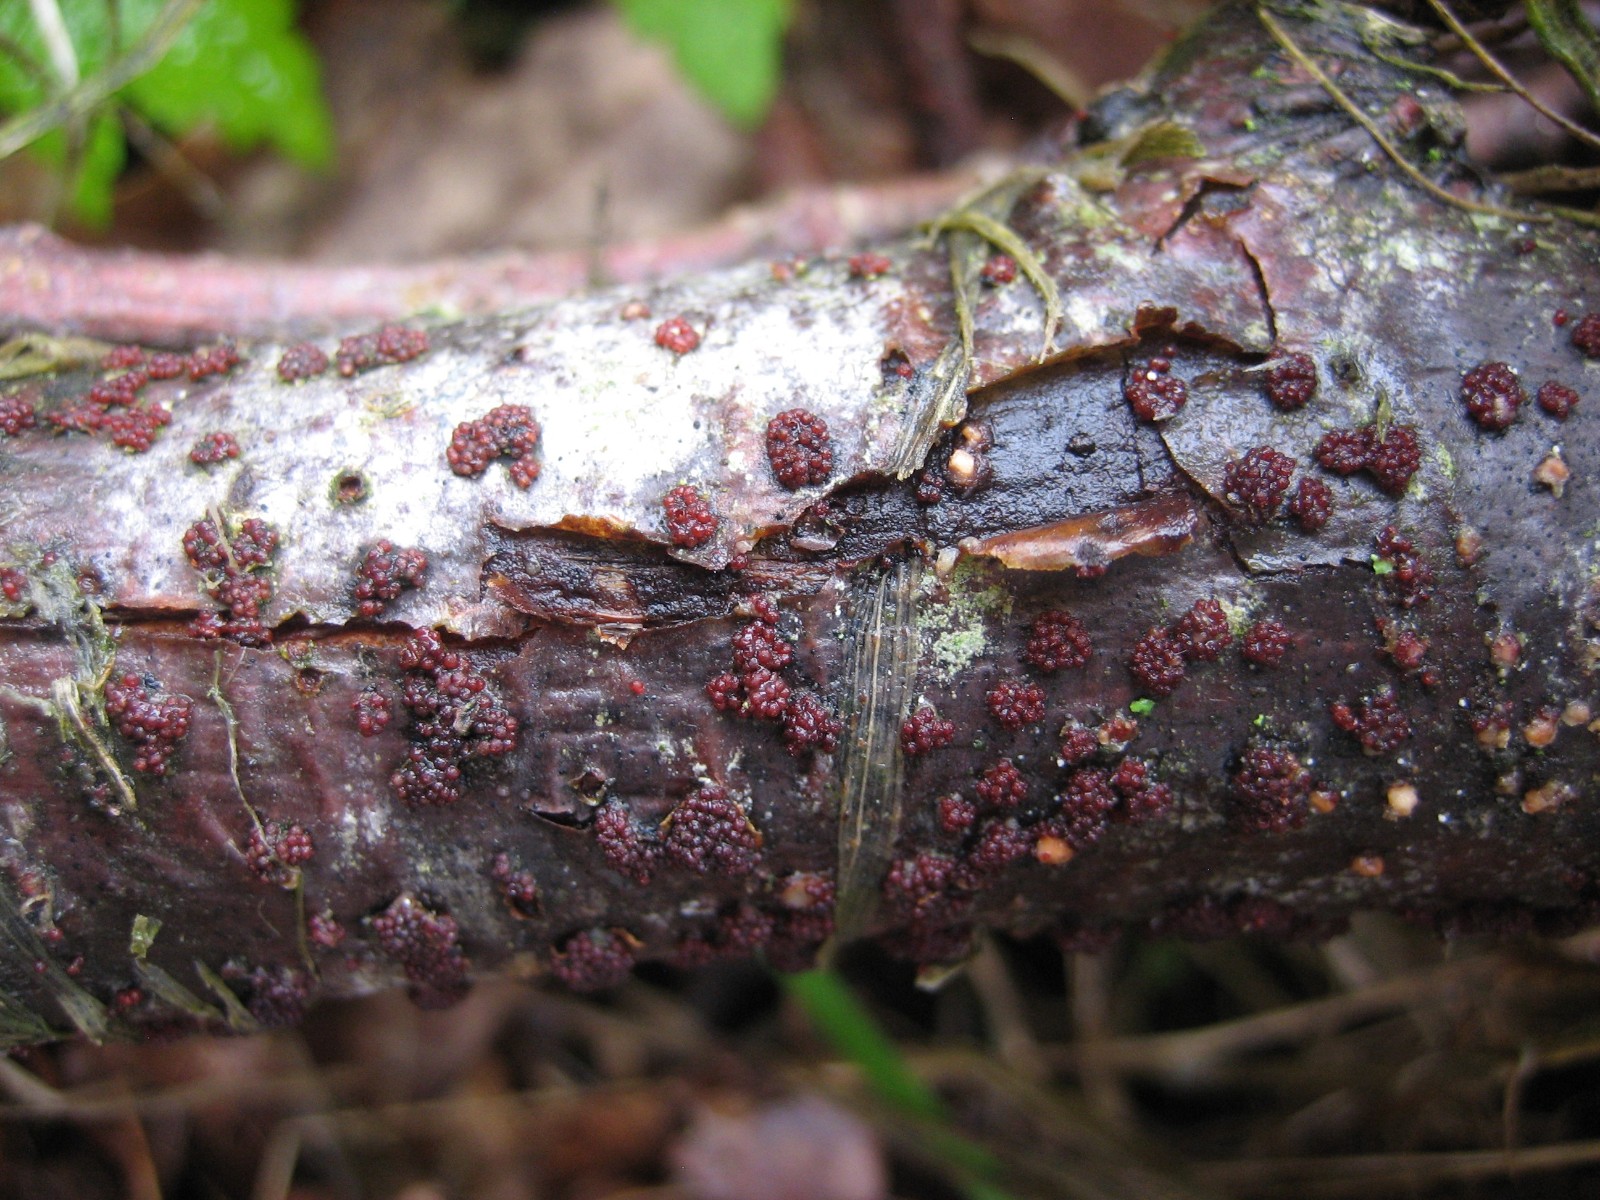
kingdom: Fungi
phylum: Ascomycota
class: Sordariomycetes
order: Hypocreales
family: Nectriaceae
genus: Nectria
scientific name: Nectria cinnabarina
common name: almindelig cinnobersvamp
